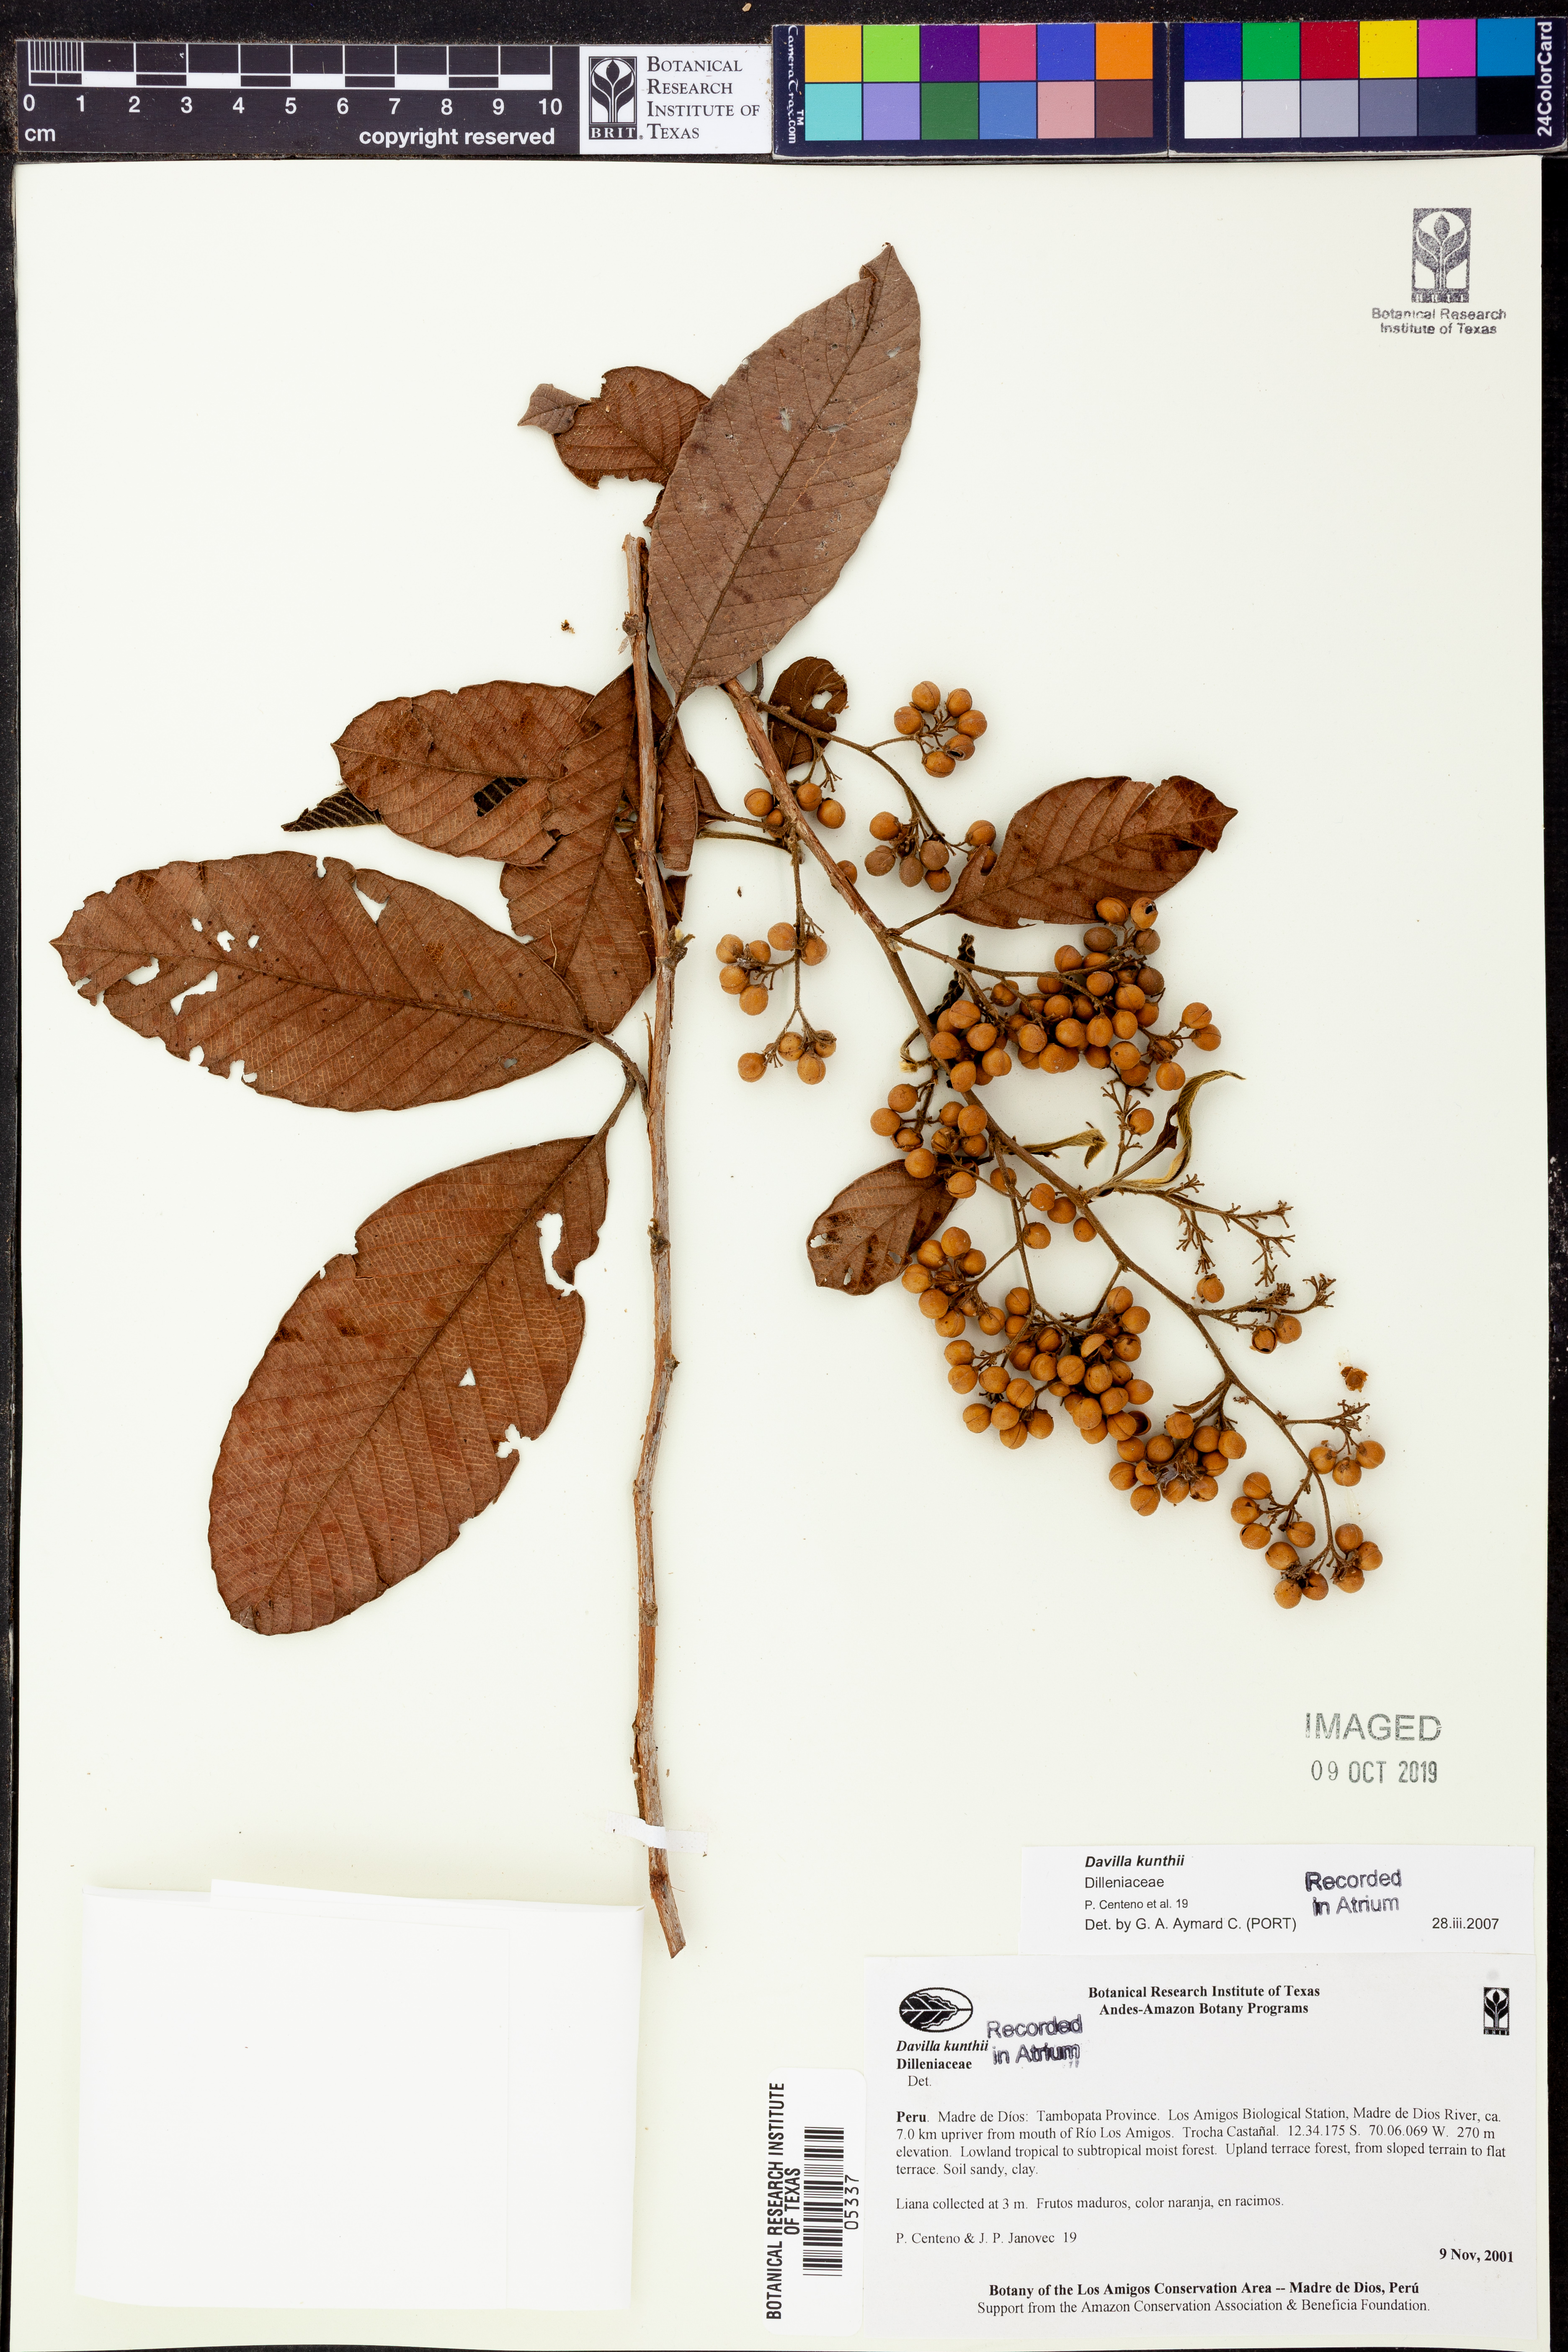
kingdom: Plantae
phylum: Tracheophyta
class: Polypodiopsida
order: Polypodiales
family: Davalliaceae
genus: Davallia
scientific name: Davallia
